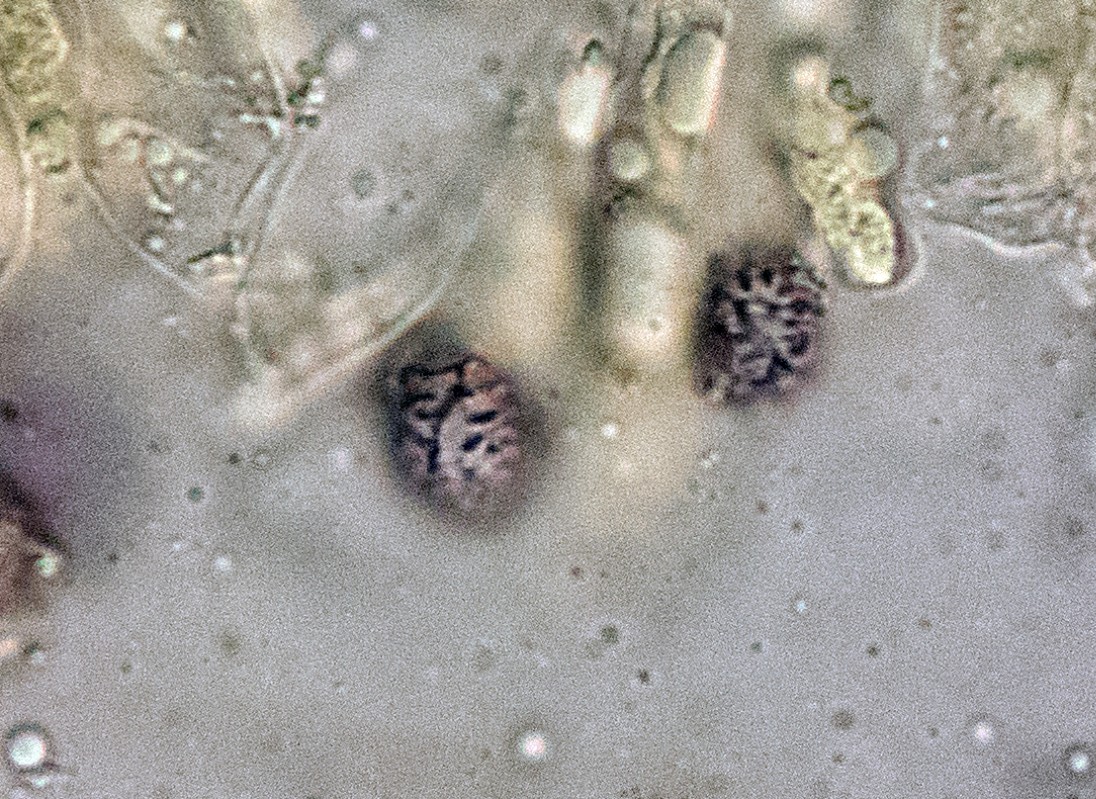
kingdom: Fungi
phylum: Basidiomycota
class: Agaricomycetes
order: Russulales
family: Russulaceae
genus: Russula
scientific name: Russula versicolor
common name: foranderlig skørhat
